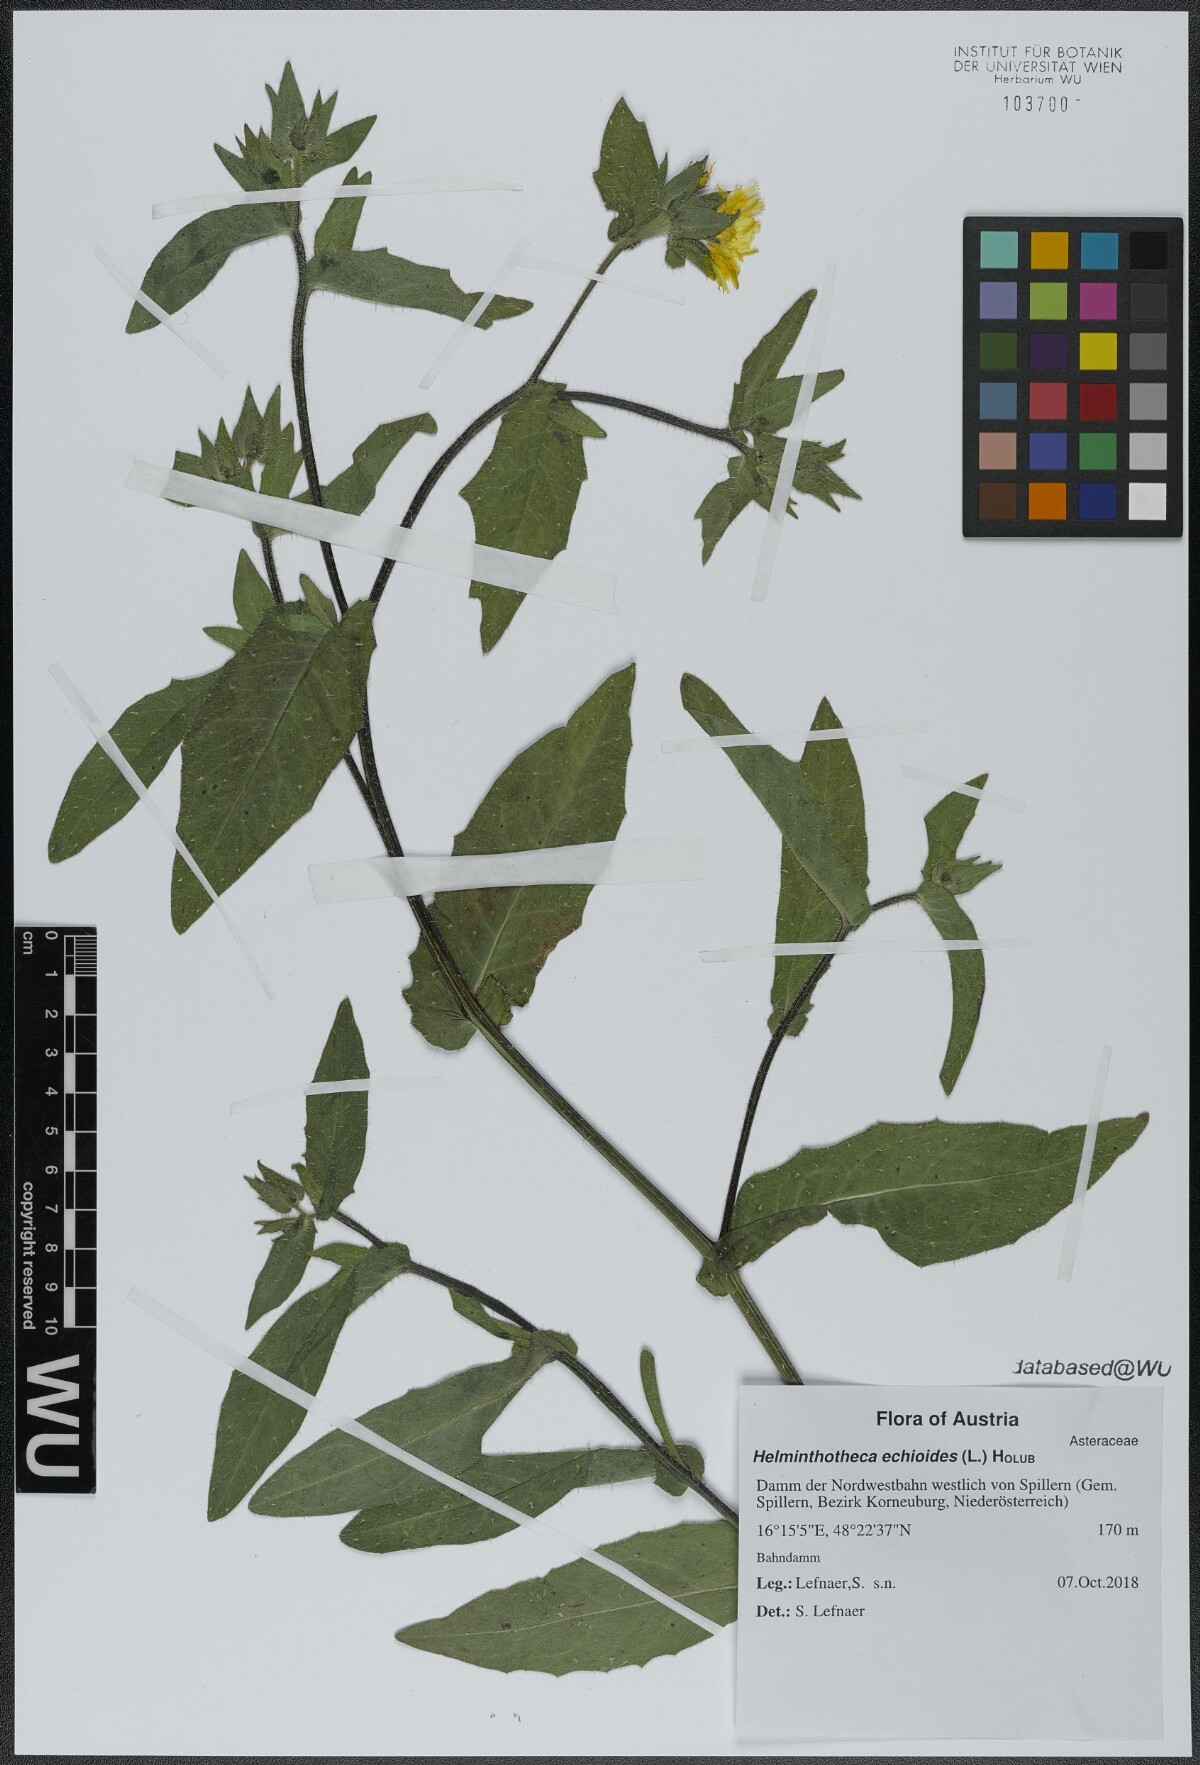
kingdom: Plantae
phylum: Tracheophyta
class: Magnoliopsida
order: Asterales
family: Asteraceae
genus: Helminthotheca
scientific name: Helminthotheca echioides
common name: Ox-tongue
